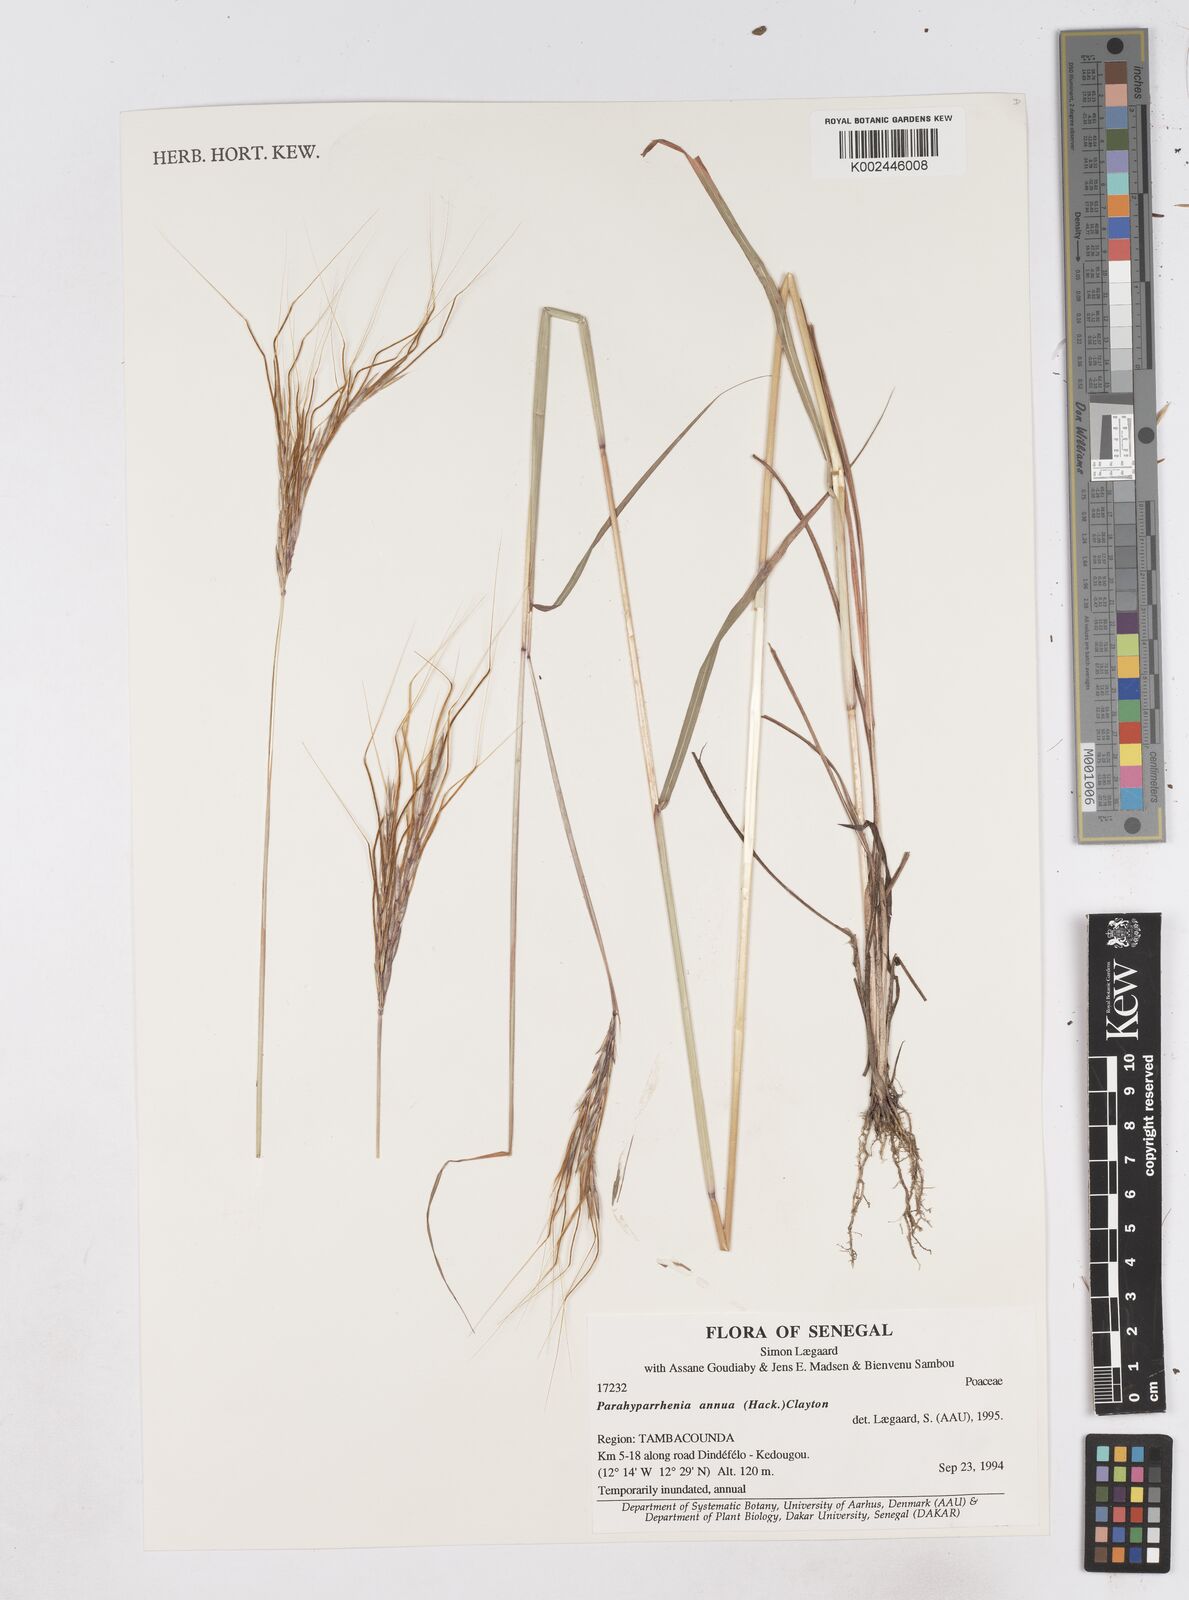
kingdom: Plantae
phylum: Tracheophyta
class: Liliopsida
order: Poales
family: Poaceae
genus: Parahyparrhenia
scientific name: Parahyparrhenia annua
